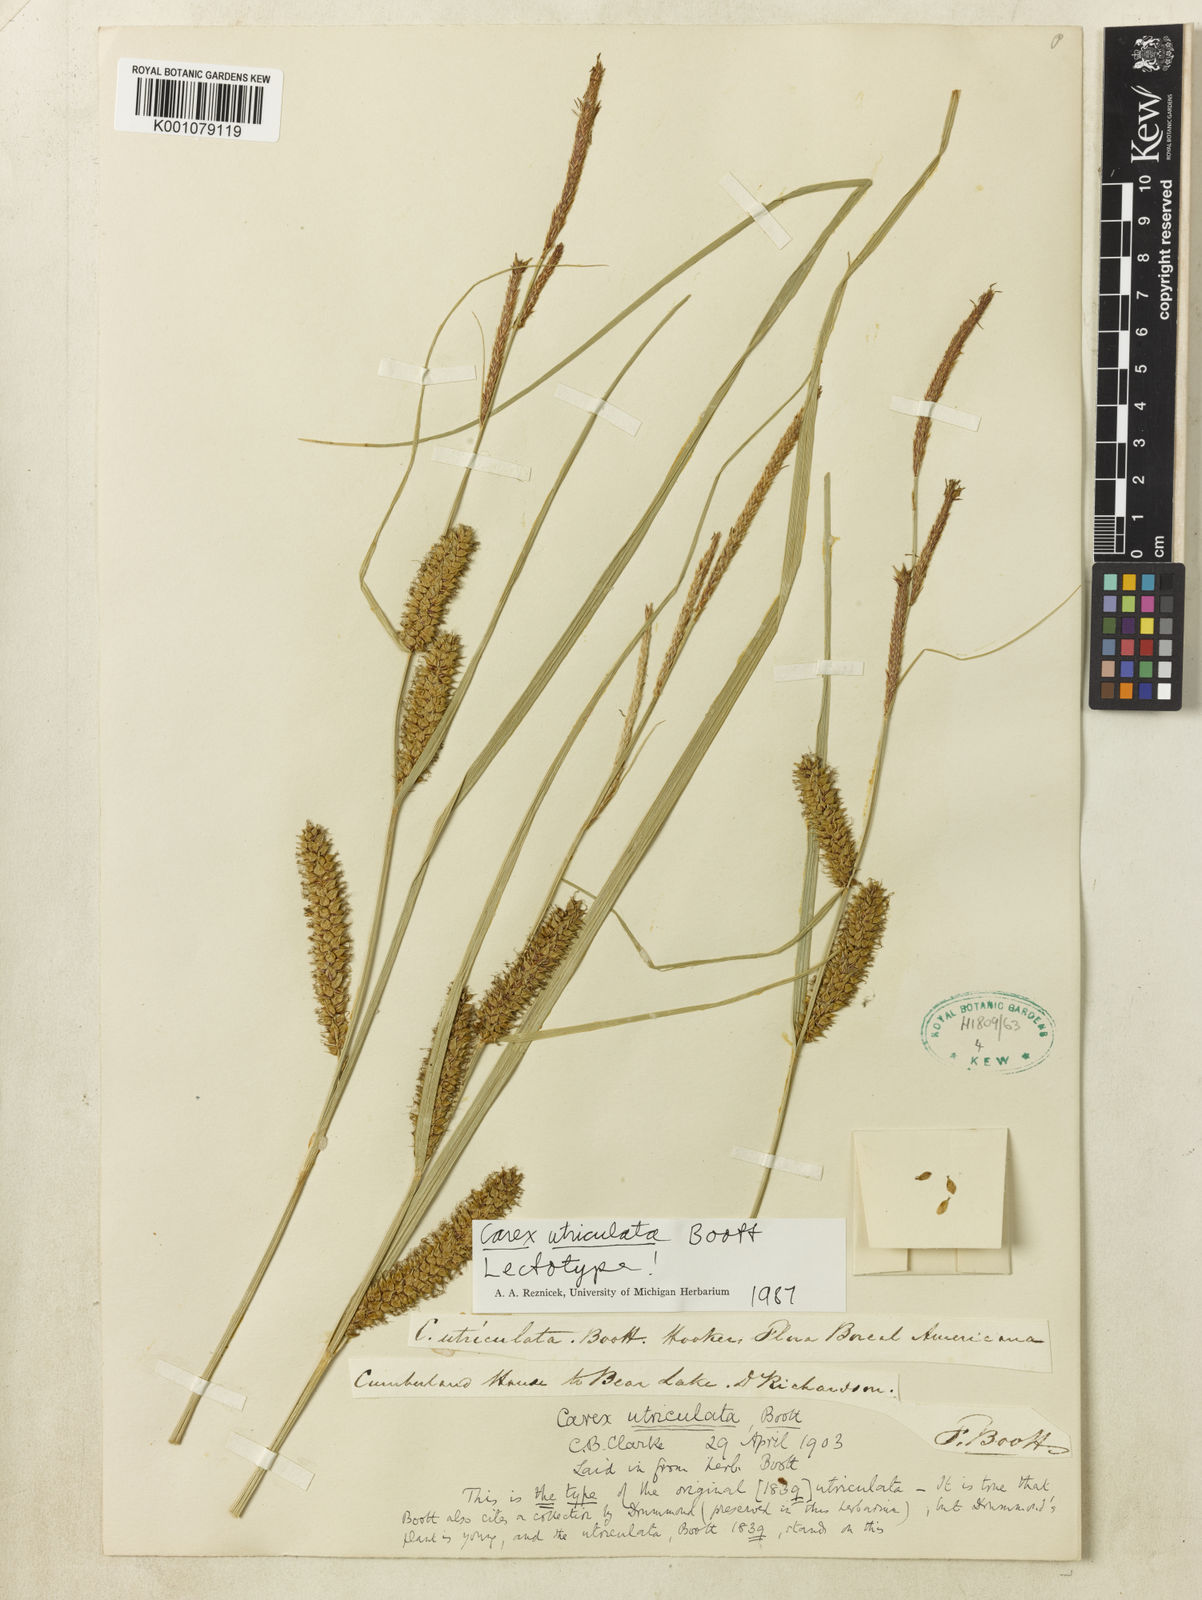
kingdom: Plantae
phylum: Tracheophyta
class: Liliopsida
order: Poales
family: Cyperaceae
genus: Carex
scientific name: Carex rostrata
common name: Bottle sedge
